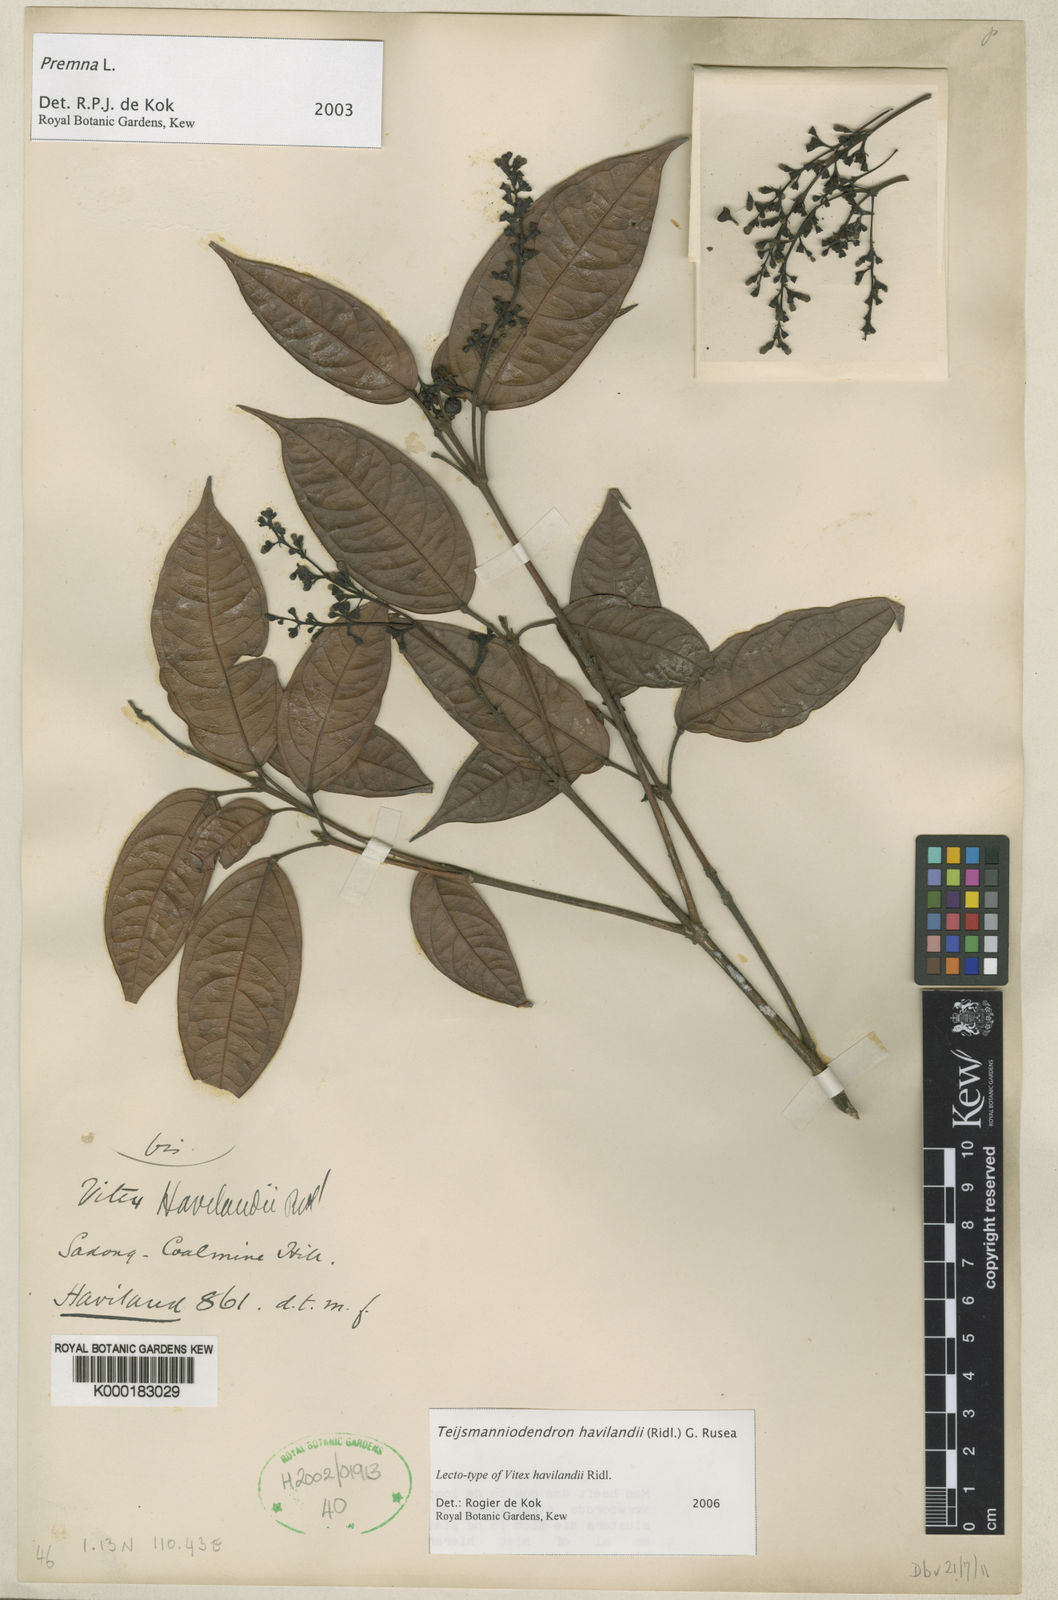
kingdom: Plantae
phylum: Tracheophyta
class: Magnoliopsida
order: Lamiales
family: Lamiaceae
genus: Teijsmanniodendron
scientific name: Teijsmanniodendron havilandii
